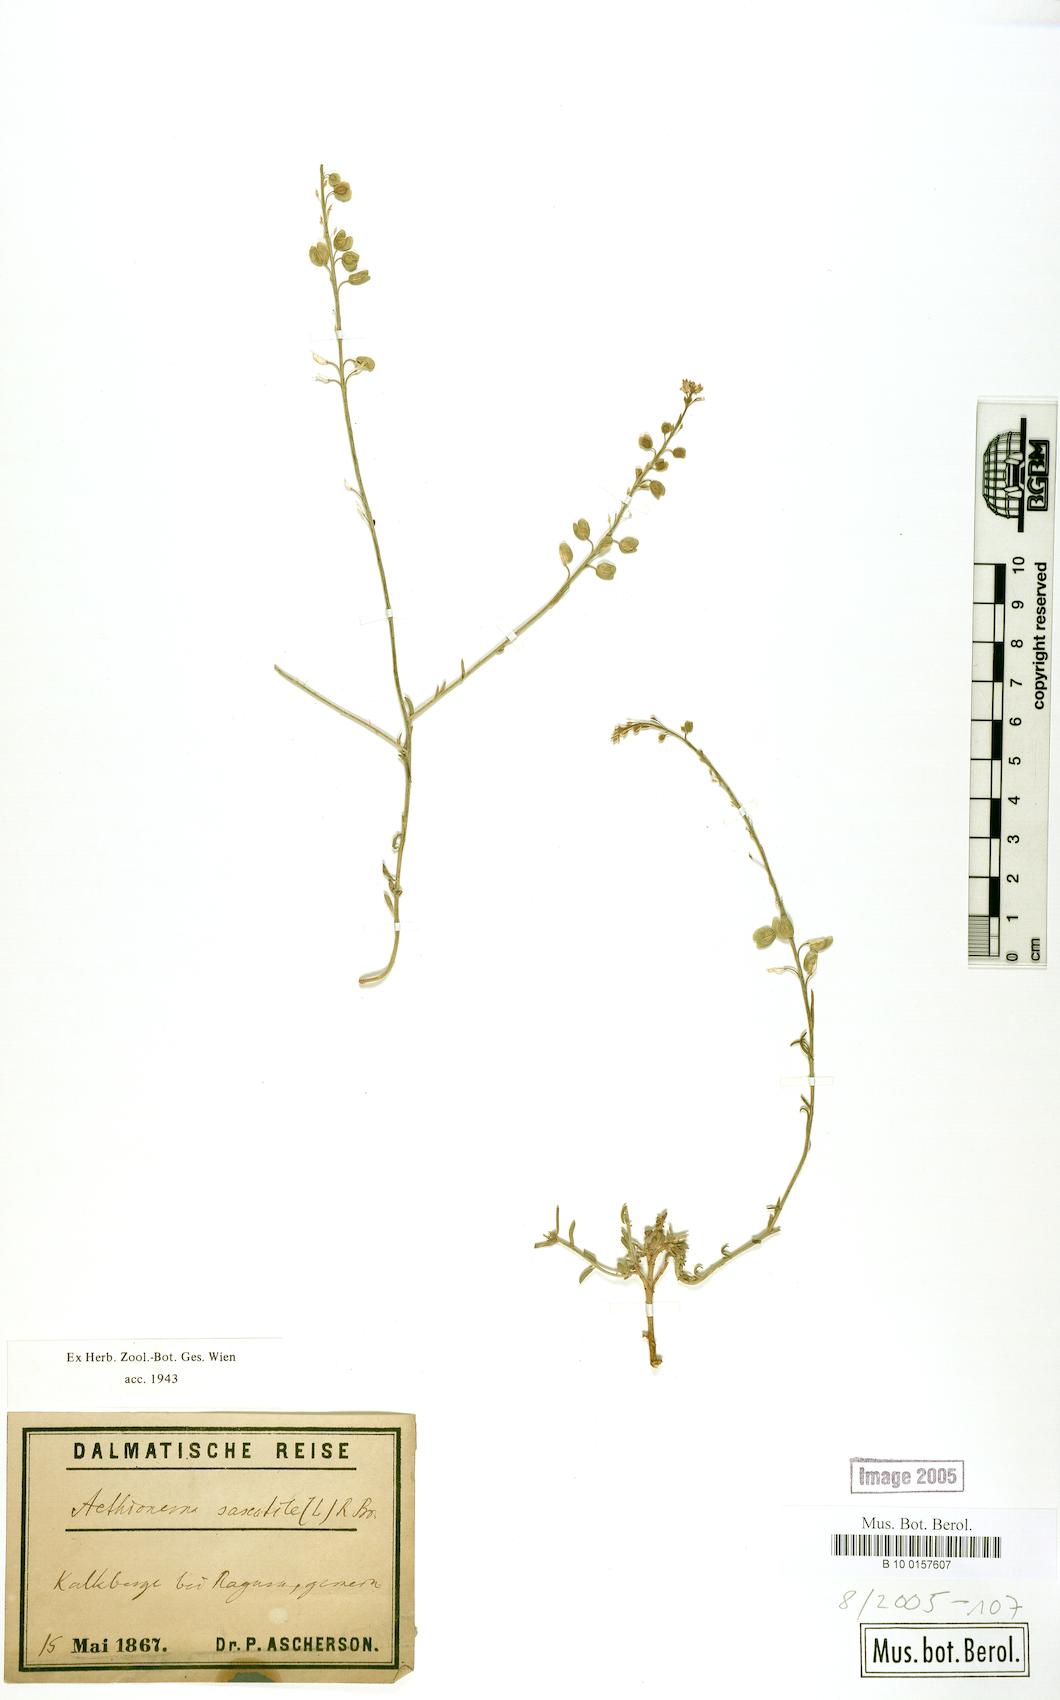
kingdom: Plantae
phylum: Tracheophyta
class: Magnoliopsida
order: Brassicales
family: Brassicaceae
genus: Aethionema
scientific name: Aethionema saxatile
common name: Burnt candytuft
